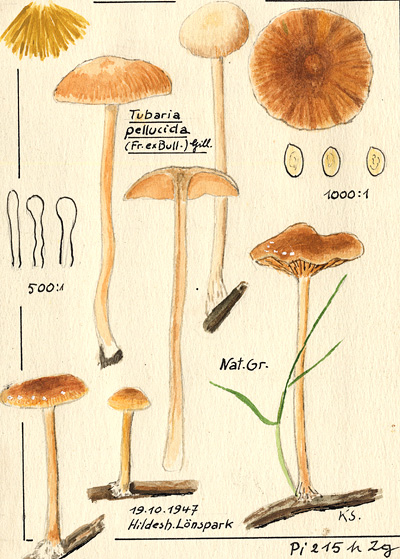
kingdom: Fungi
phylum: Basidiomycota
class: Agaricomycetes
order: Agaricales
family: Tubariaceae
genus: Tubaria
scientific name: Tubaria romagnesiana
